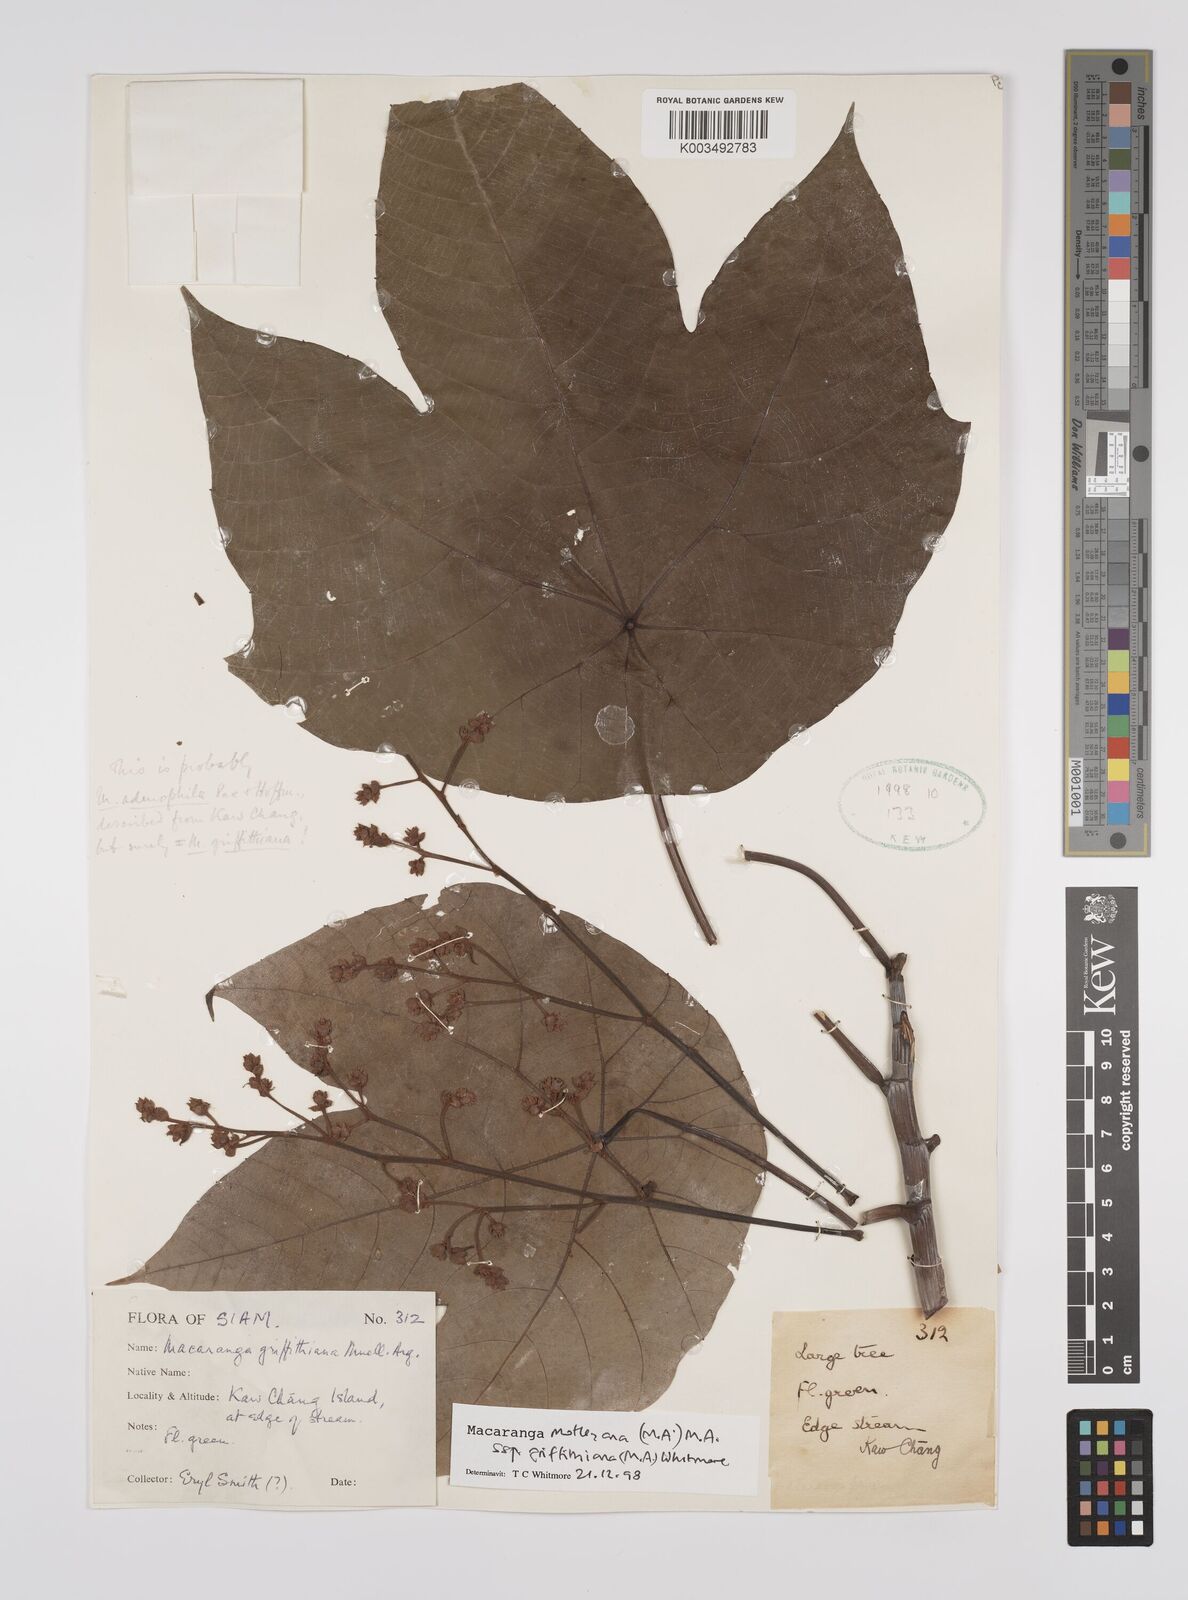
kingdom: Plantae
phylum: Tracheophyta
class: Magnoliopsida
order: Malpighiales
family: Euphorbiaceae
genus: Macaranga
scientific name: Macaranga griffithiana
